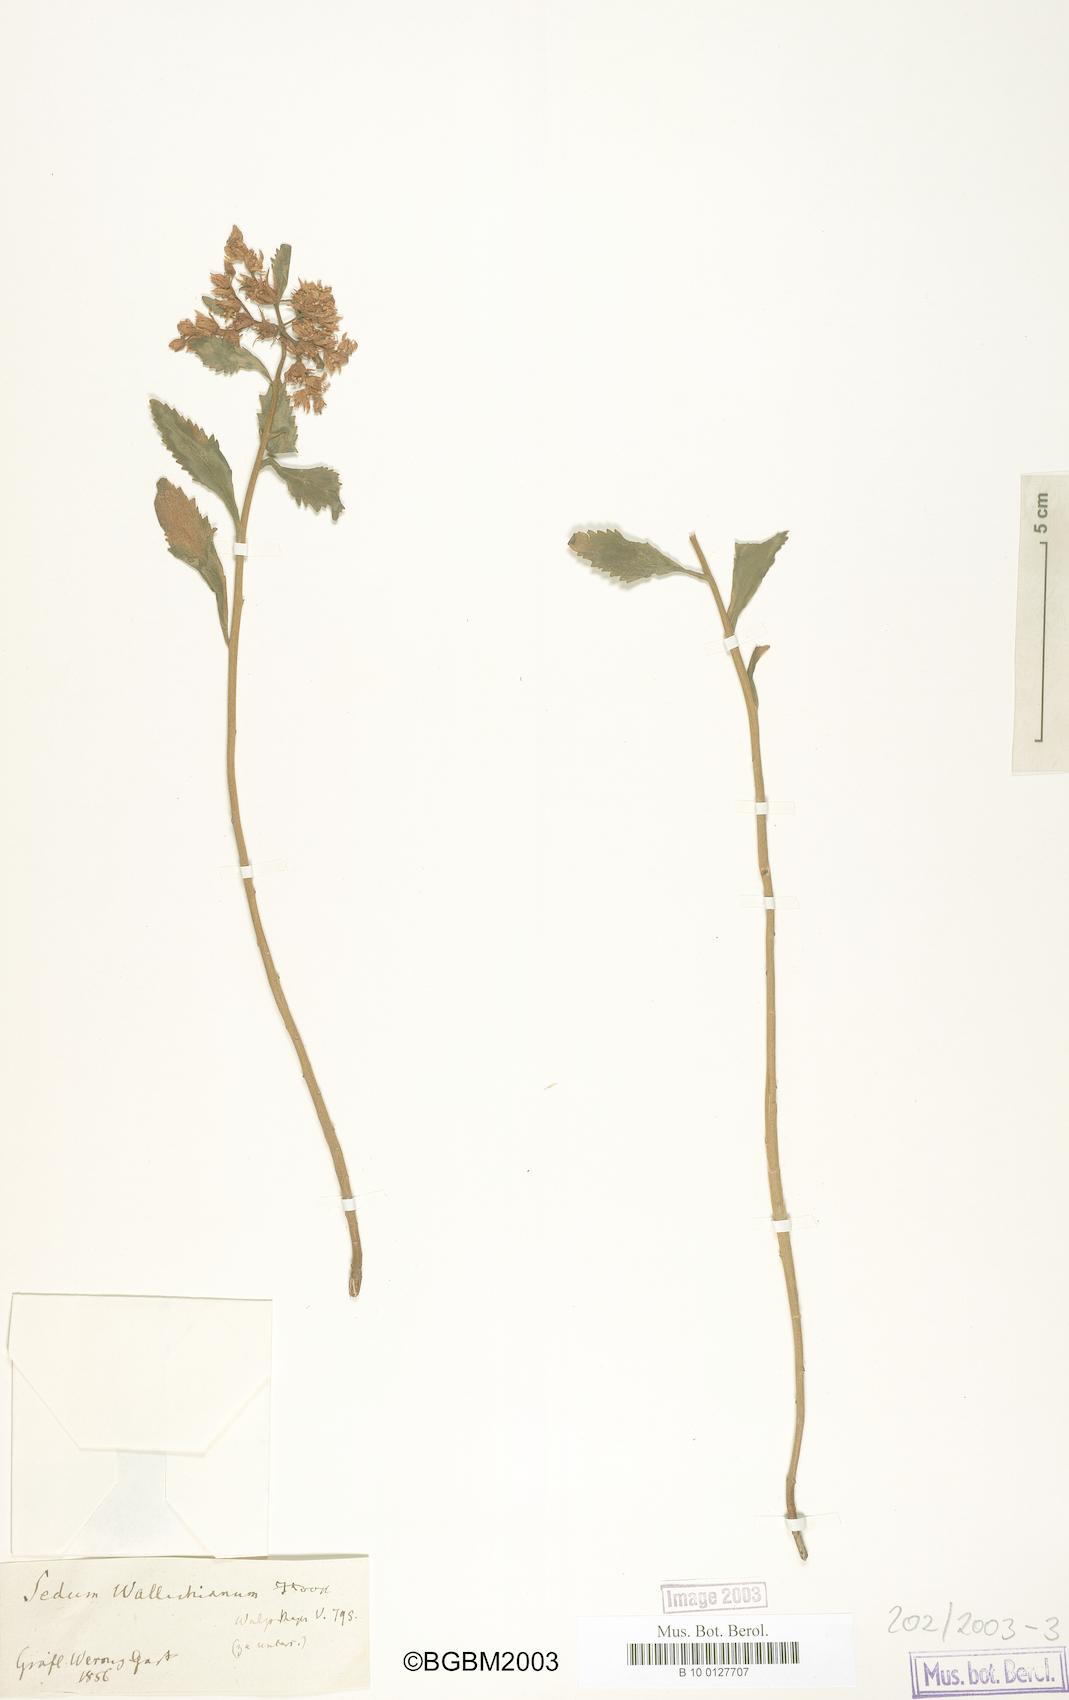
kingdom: Plantae
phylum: Tracheophyta
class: Magnoliopsida
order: Saxifragales
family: Crassulaceae
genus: Rhodiola
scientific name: Rhodiola wallichiana
